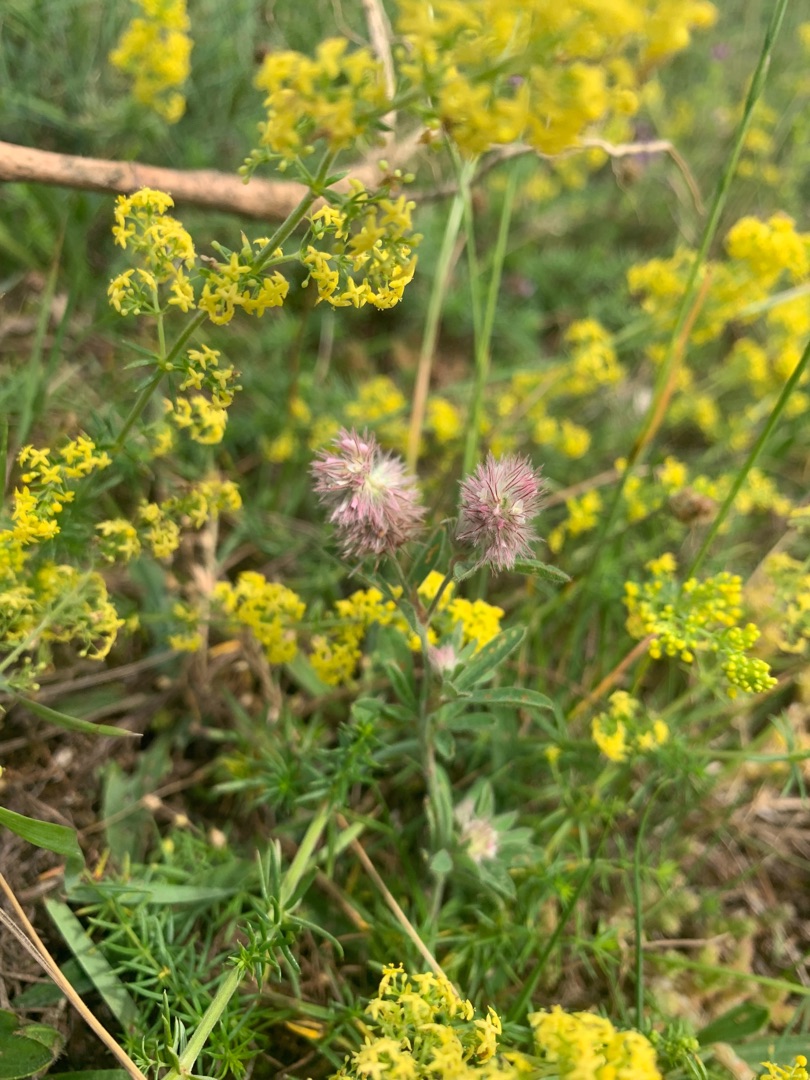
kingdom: Plantae
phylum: Tracheophyta
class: Magnoliopsida
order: Fabales
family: Fabaceae
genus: Trifolium
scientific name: Trifolium arvense
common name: Hare-kløver
